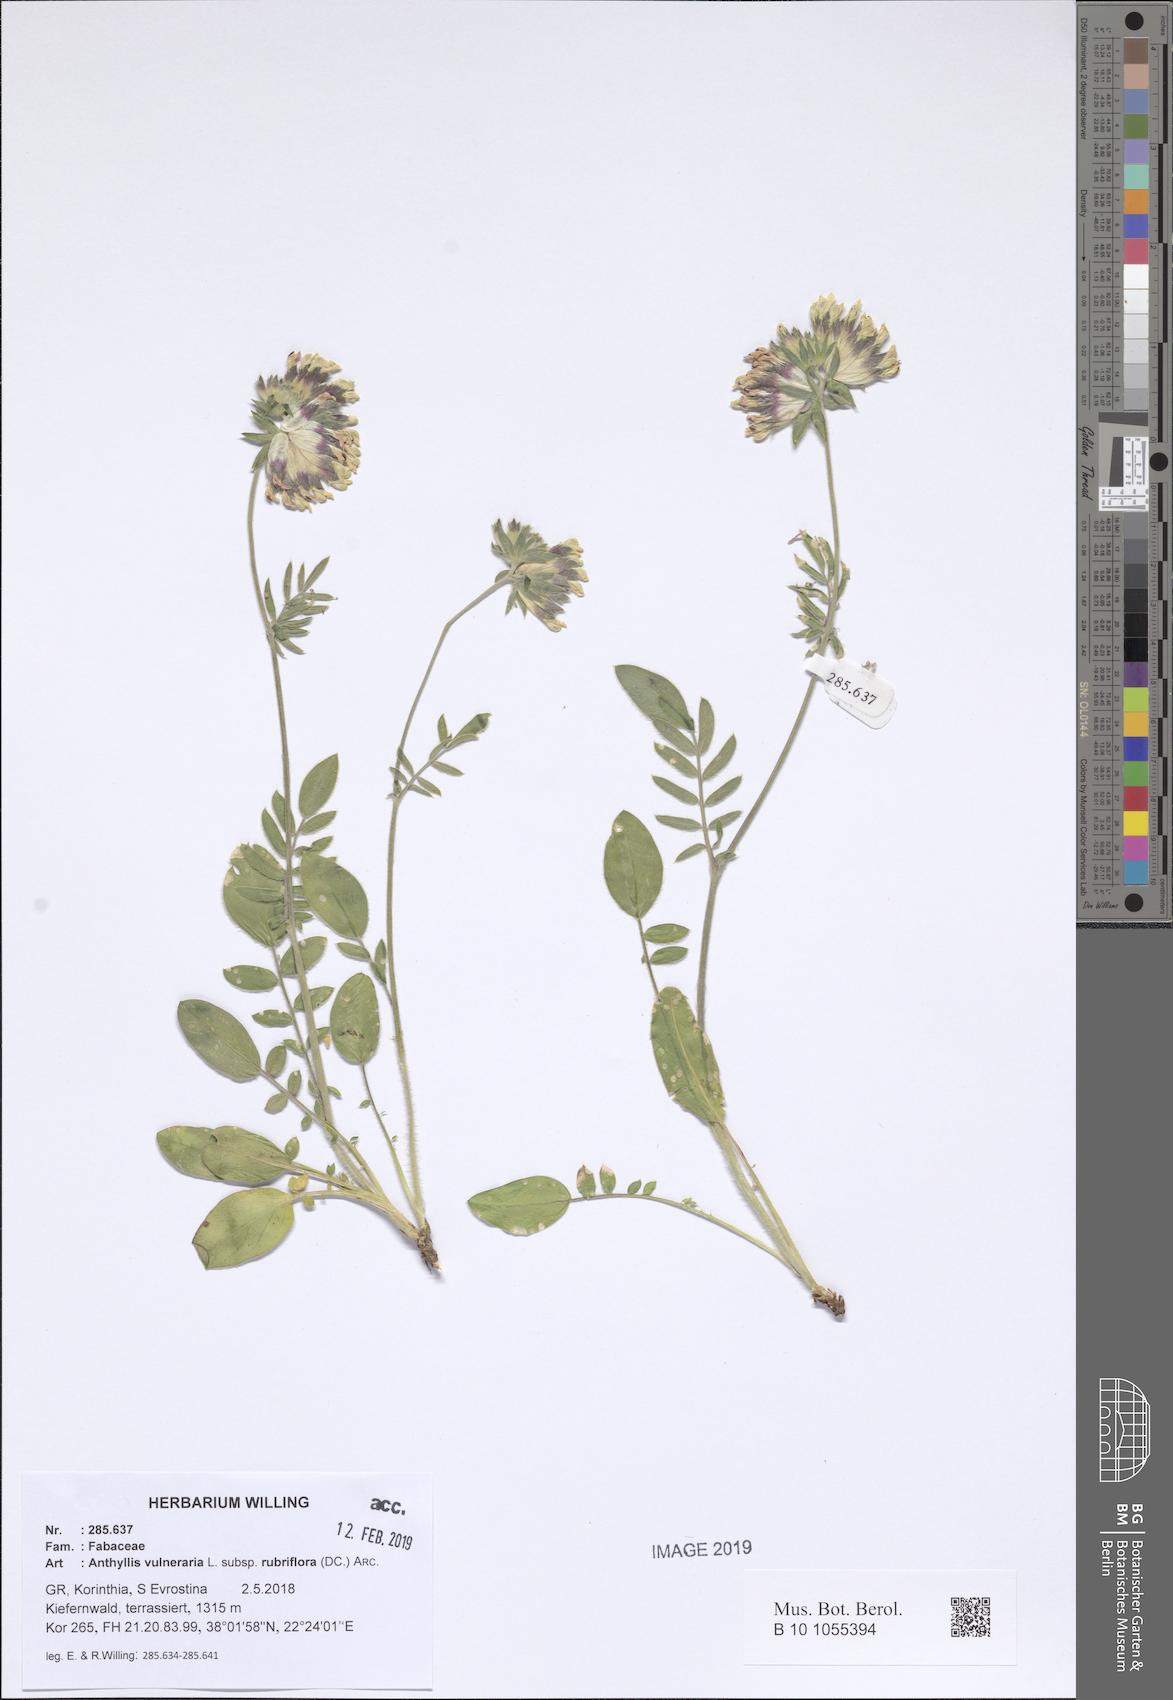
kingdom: Plantae
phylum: Tracheophyta
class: Magnoliopsida
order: Fabales
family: Fabaceae
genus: Anthyllis
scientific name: Anthyllis vulneraria
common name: Kidney vetch
